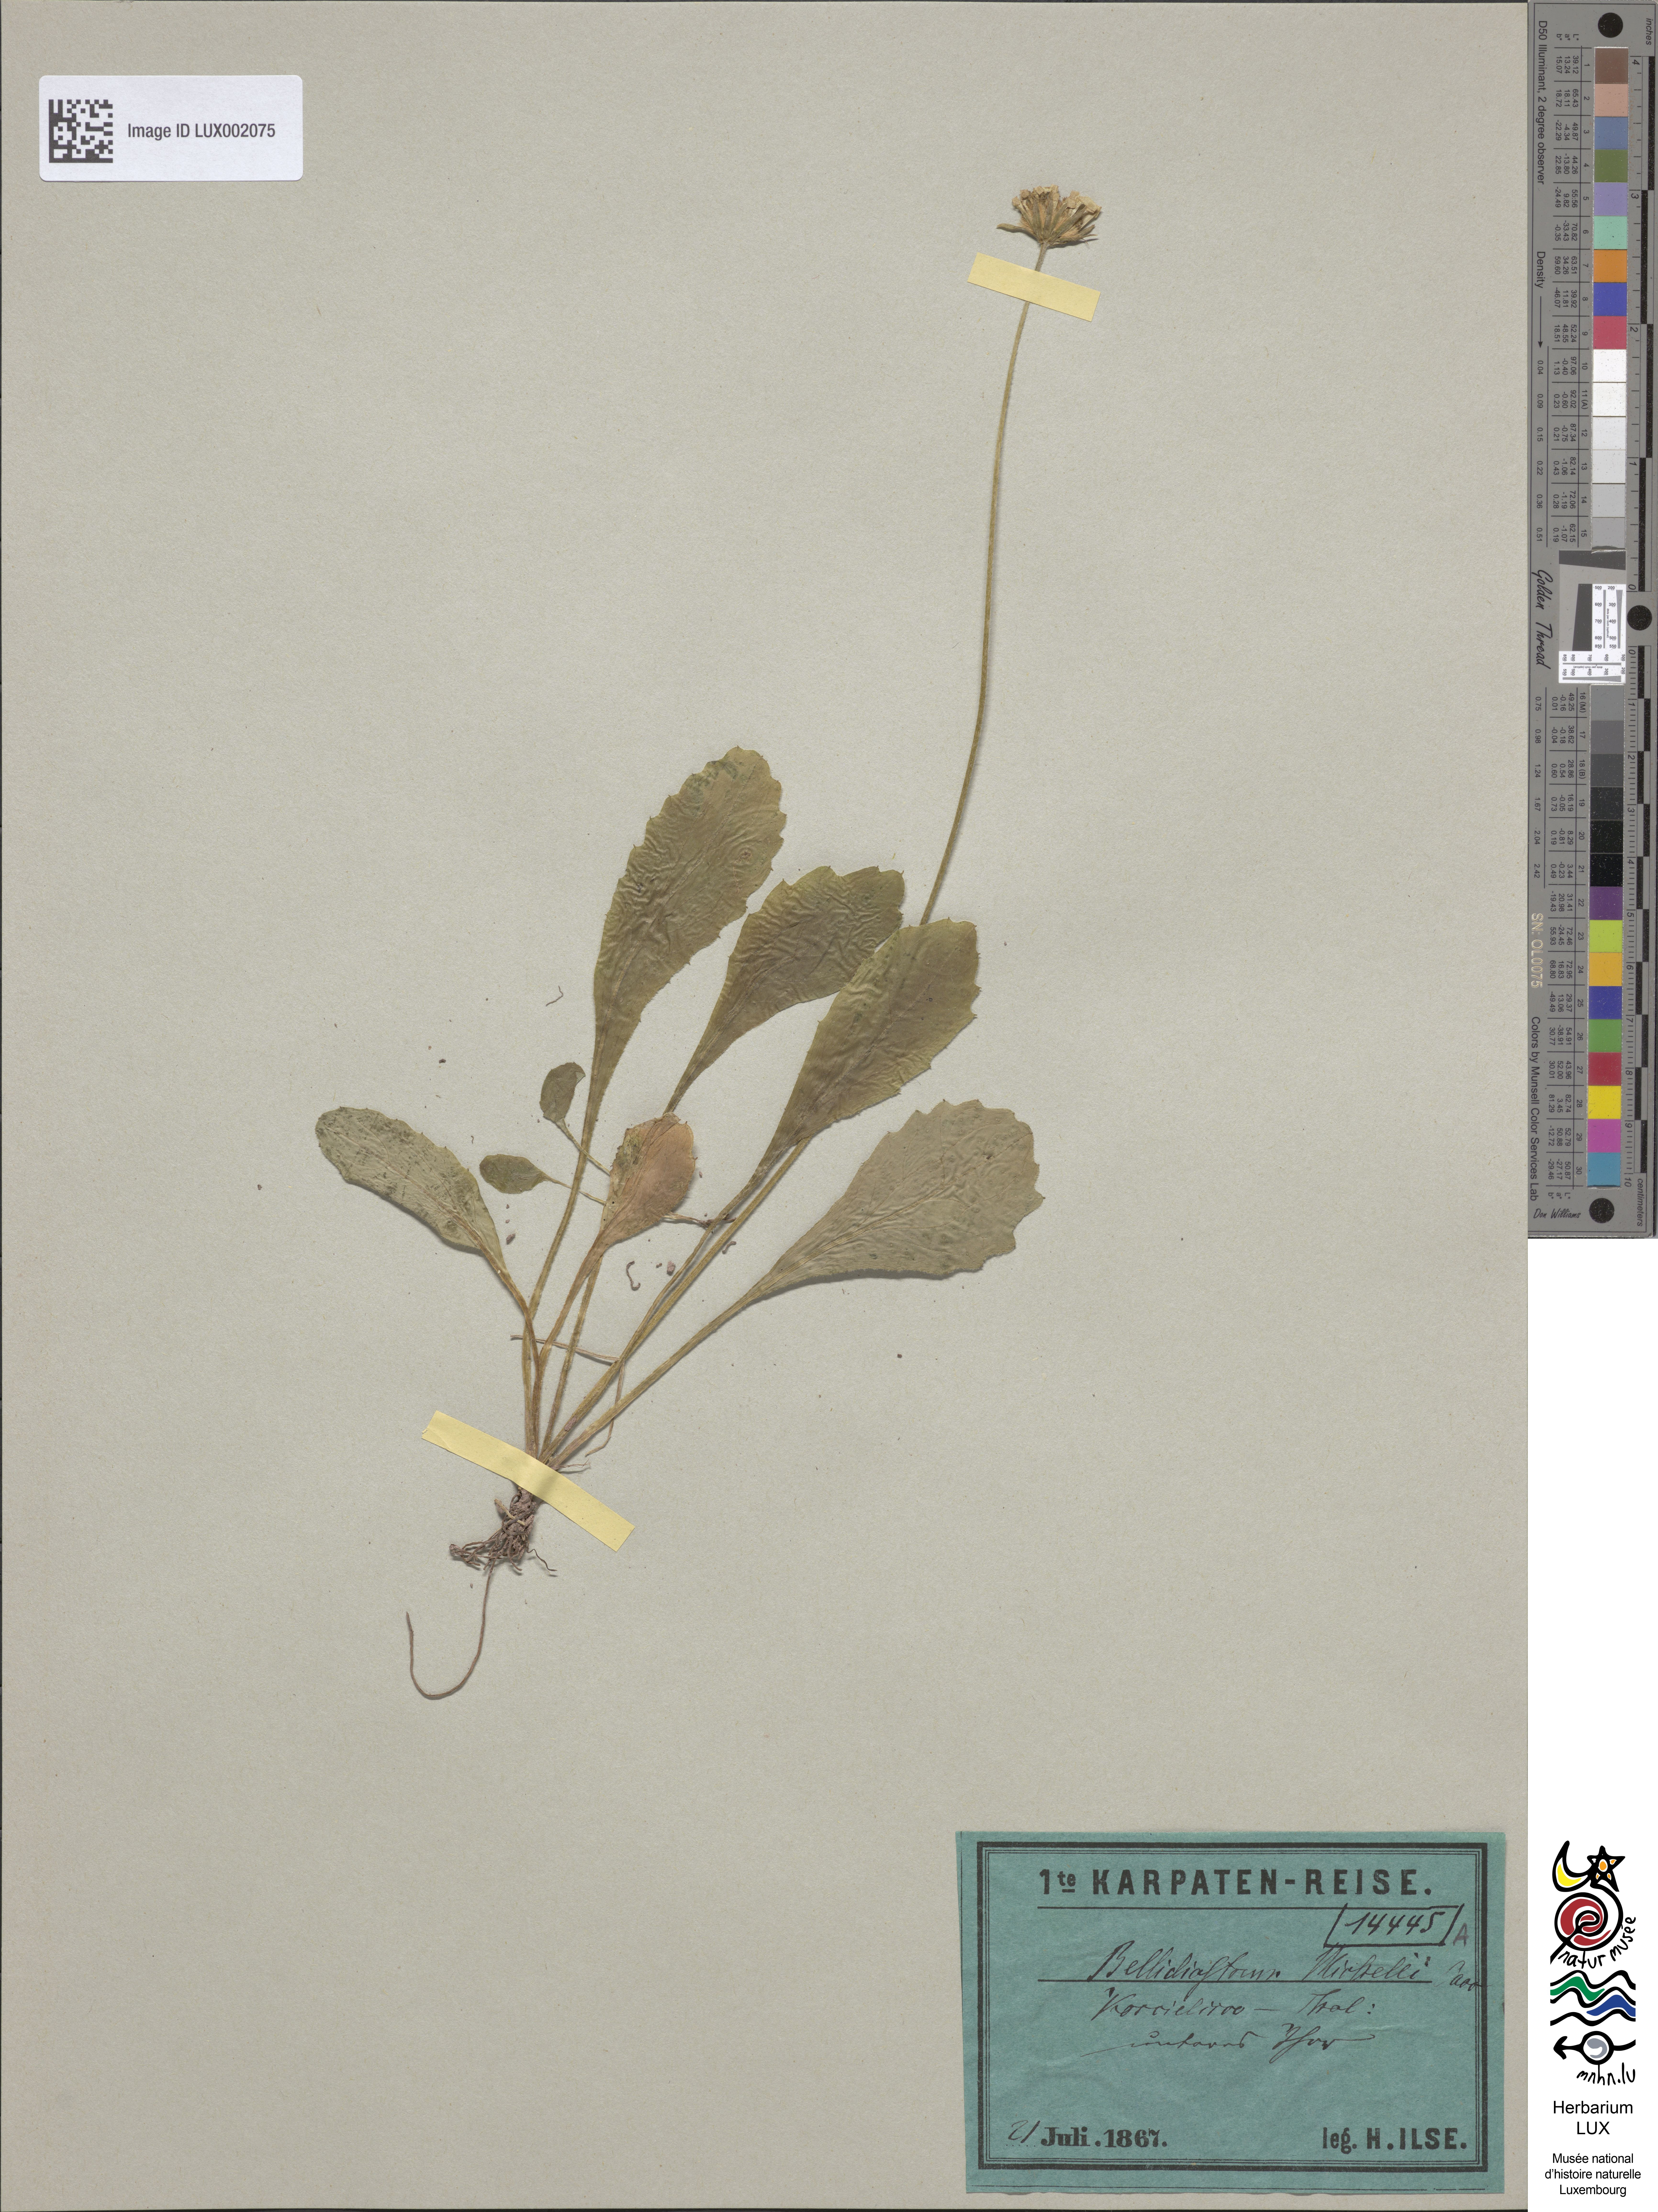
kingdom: Plantae
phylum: Tracheophyta
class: Magnoliopsida
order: Asterales
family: Asteraceae
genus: Bellidiastrum
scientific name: Bellidiastrum michelii
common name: Daisy-star aster
